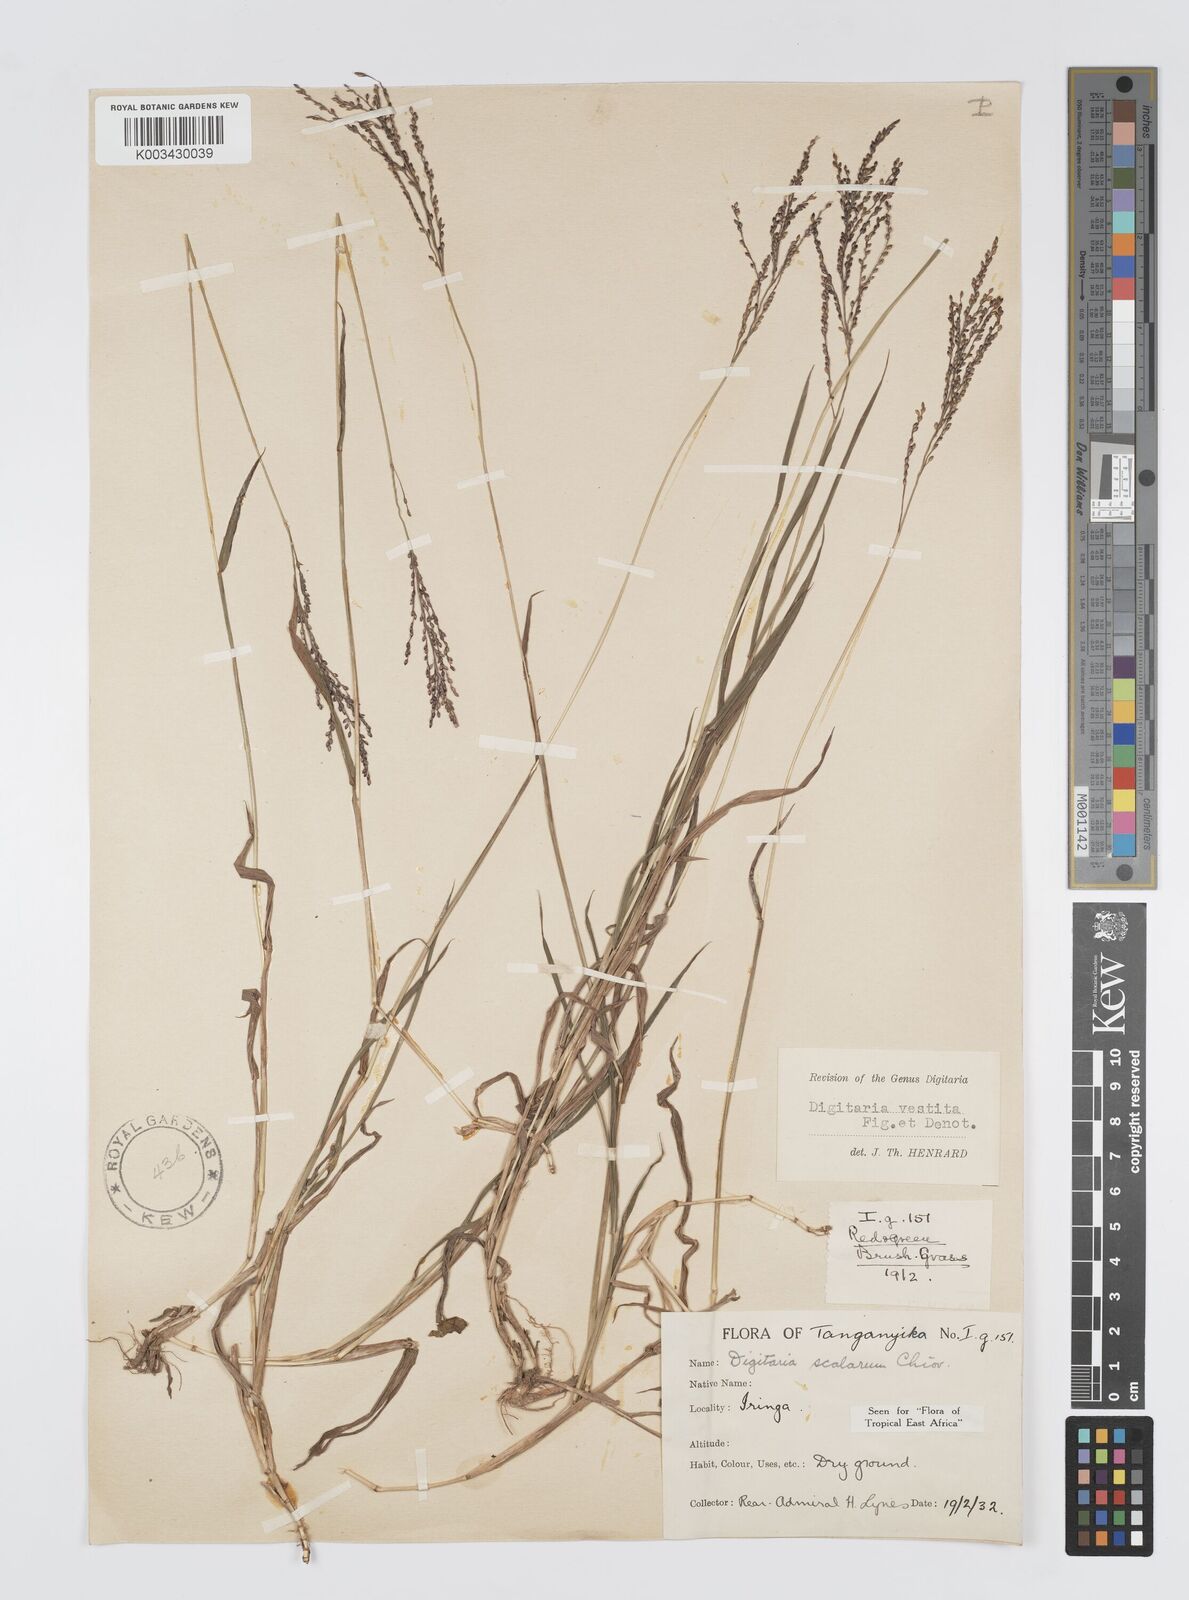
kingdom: Plantae
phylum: Tracheophyta
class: Liliopsida
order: Poales
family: Poaceae
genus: Digitaria
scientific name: Digitaria abyssinica
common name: African couchgrass
